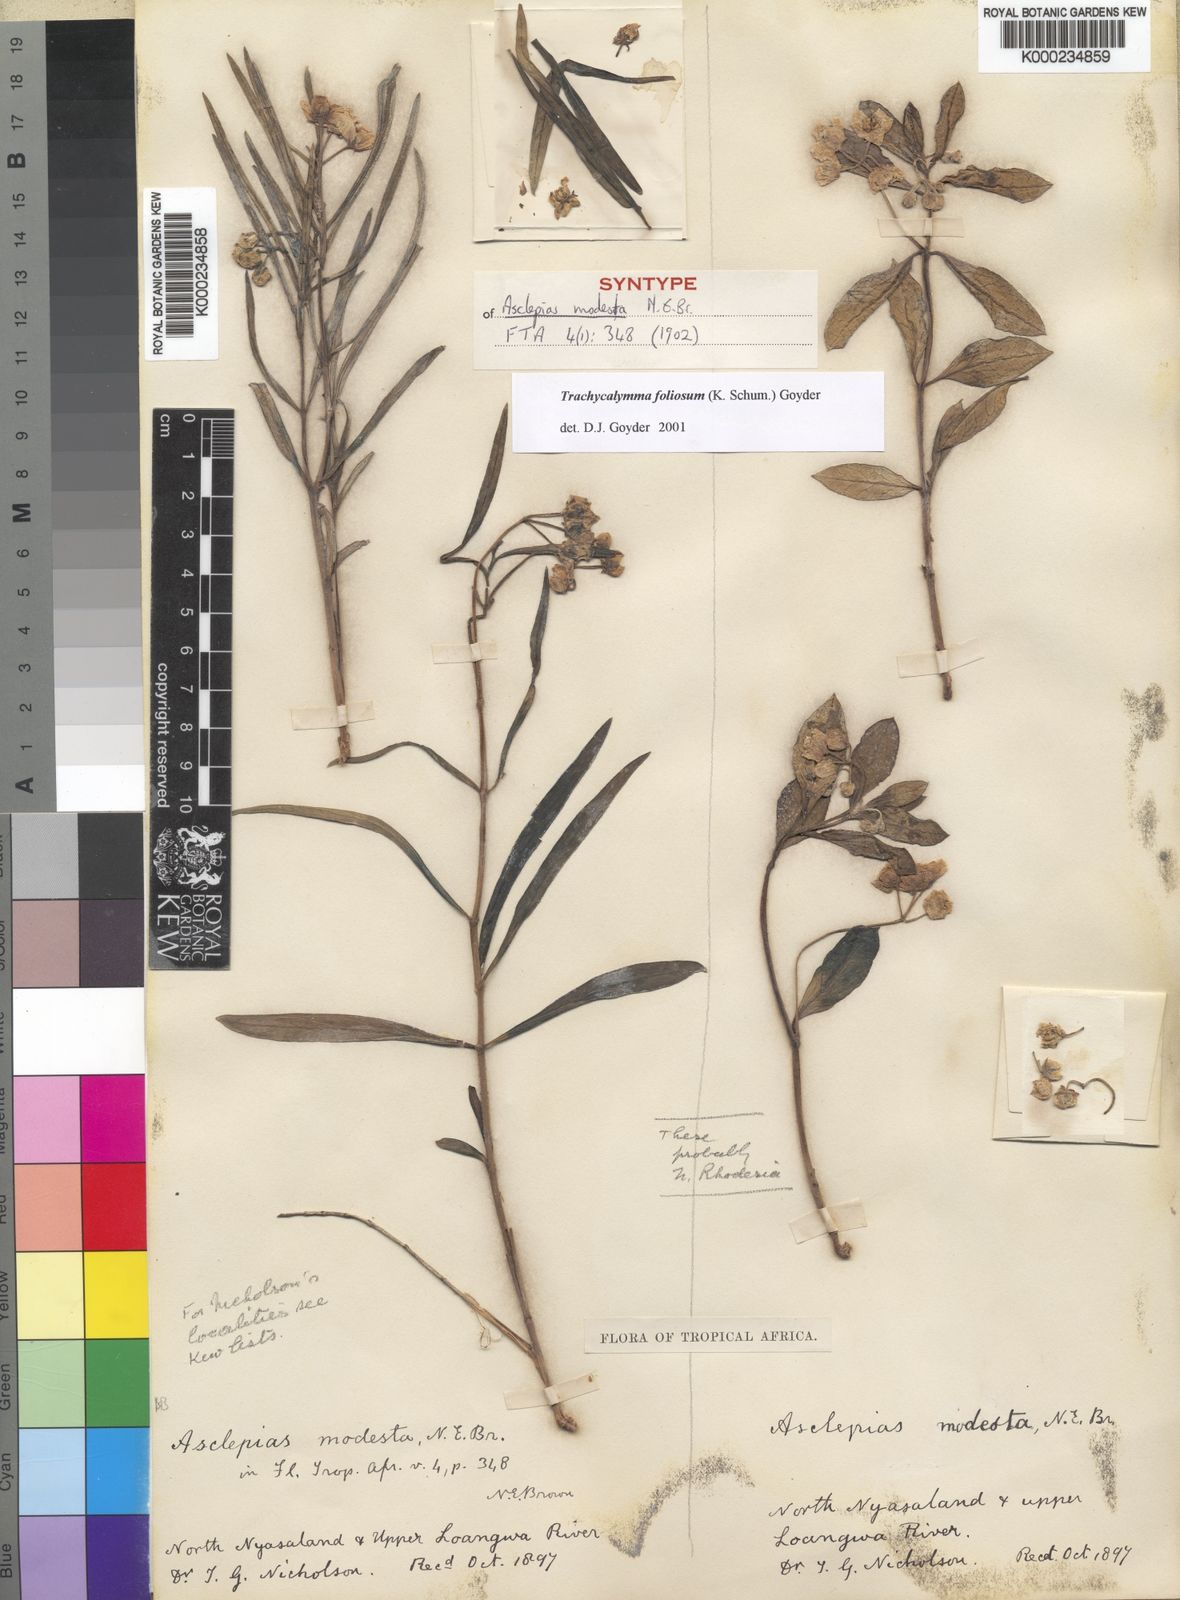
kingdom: Plantae
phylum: Tracheophyta
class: Magnoliopsida
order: Gentianales
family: Apocynaceae
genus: Asclepias
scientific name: Asclepias foliosa
